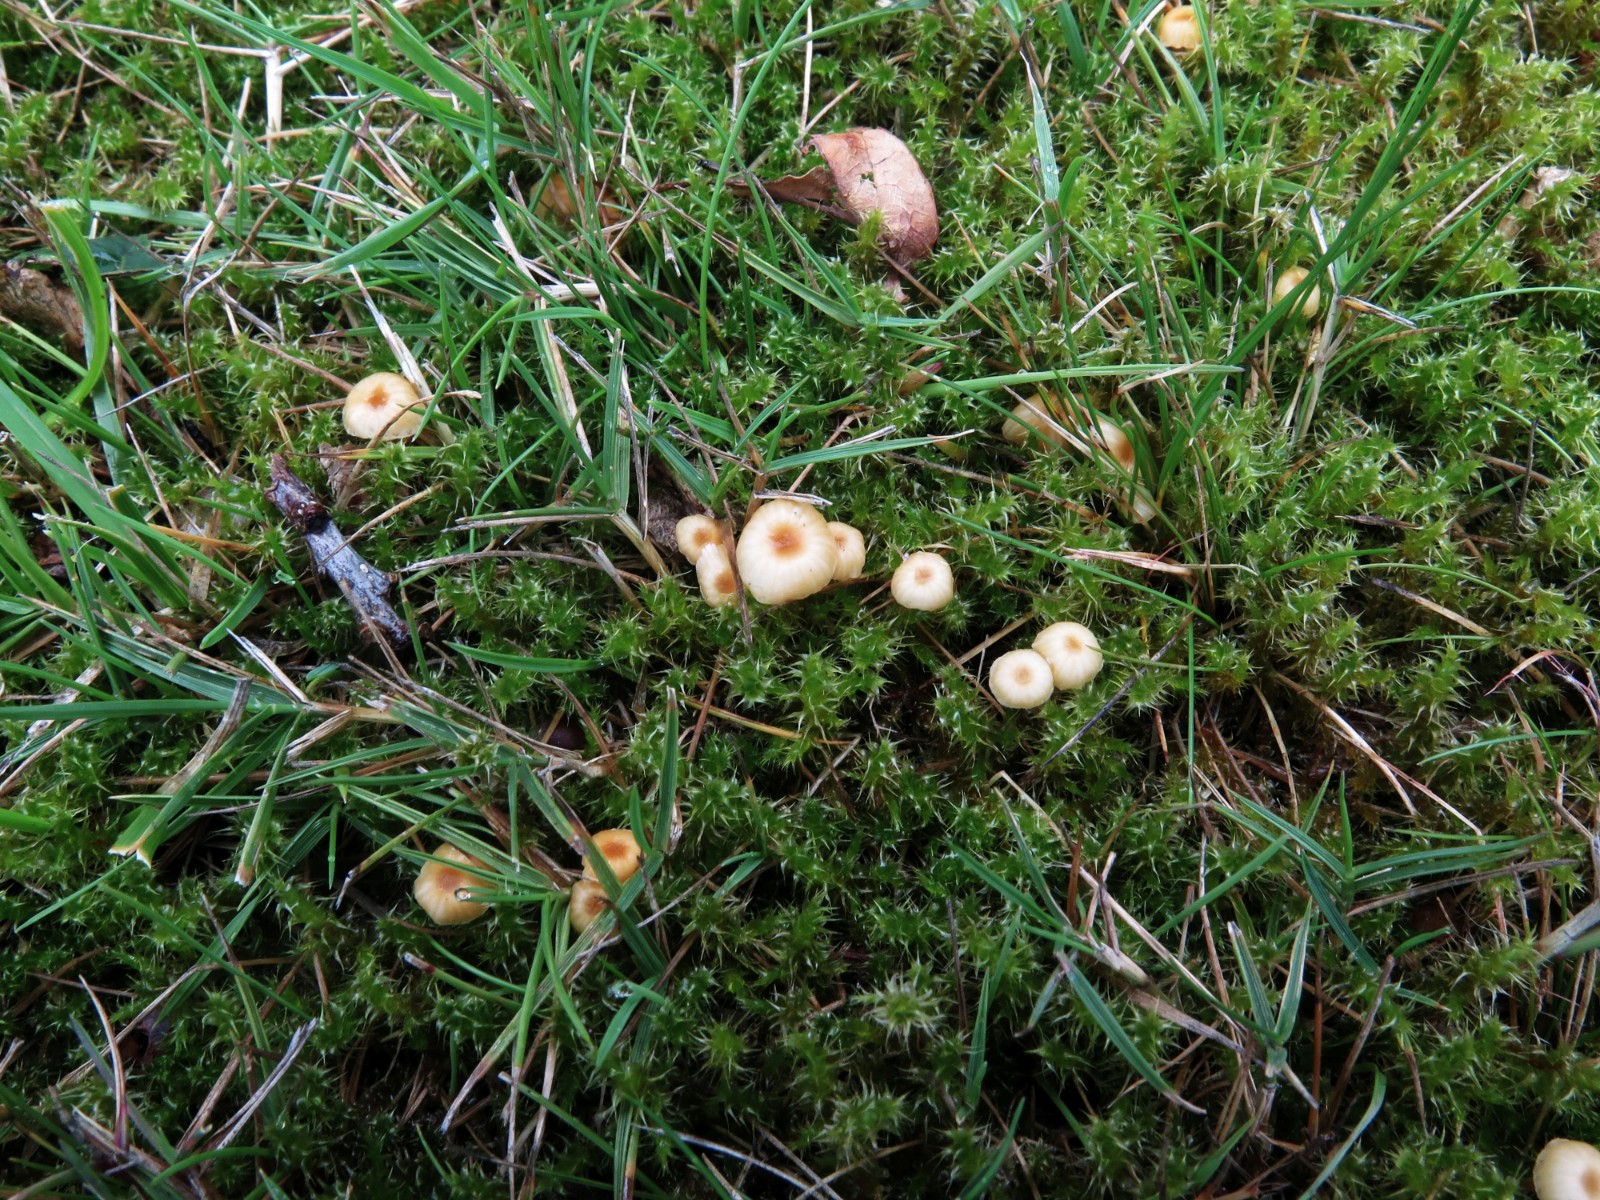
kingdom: Fungi
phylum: Basidiomycota
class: Agaricomycetes
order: Hymenochaetales
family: Rickenellaceae
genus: Rickenella
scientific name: Rickenella fibula
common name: orange mosnavlehat
